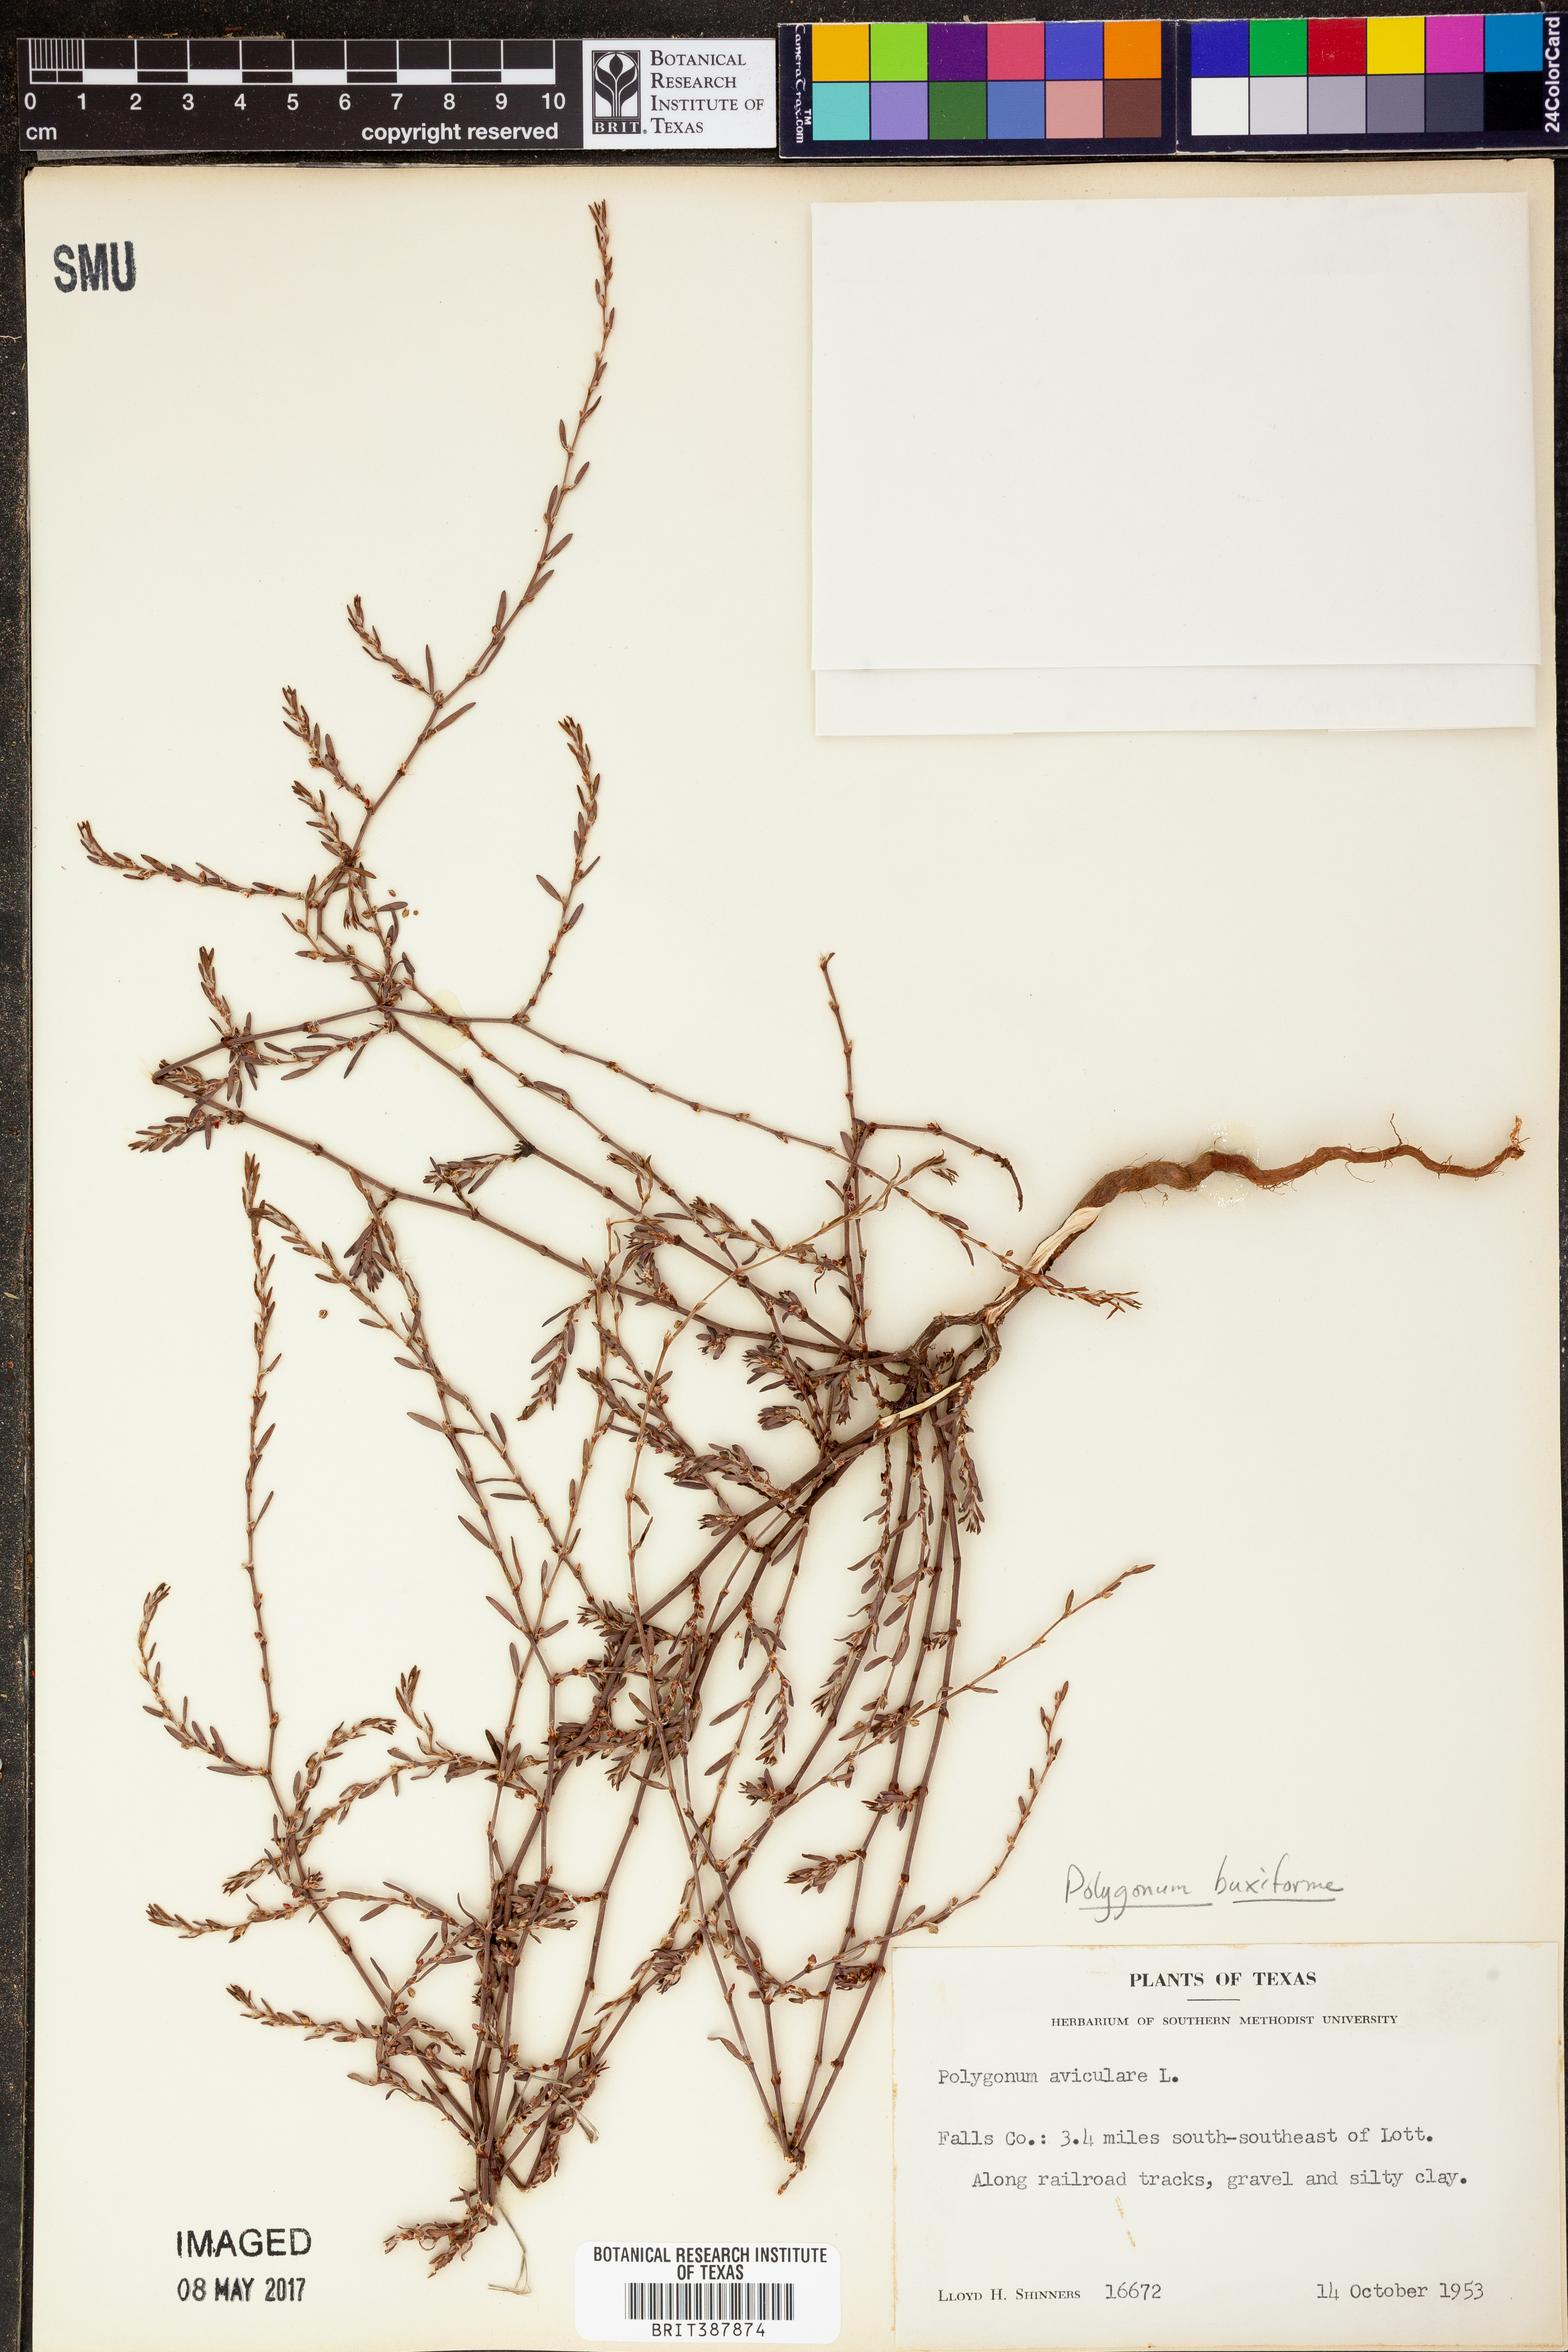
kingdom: Plantae
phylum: Tracheophyta
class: Magnoliopsida
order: Caryophyllales
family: Polygonaceae
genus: Polygonum
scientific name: Polygonum aviculare
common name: Prostrate knotweed
